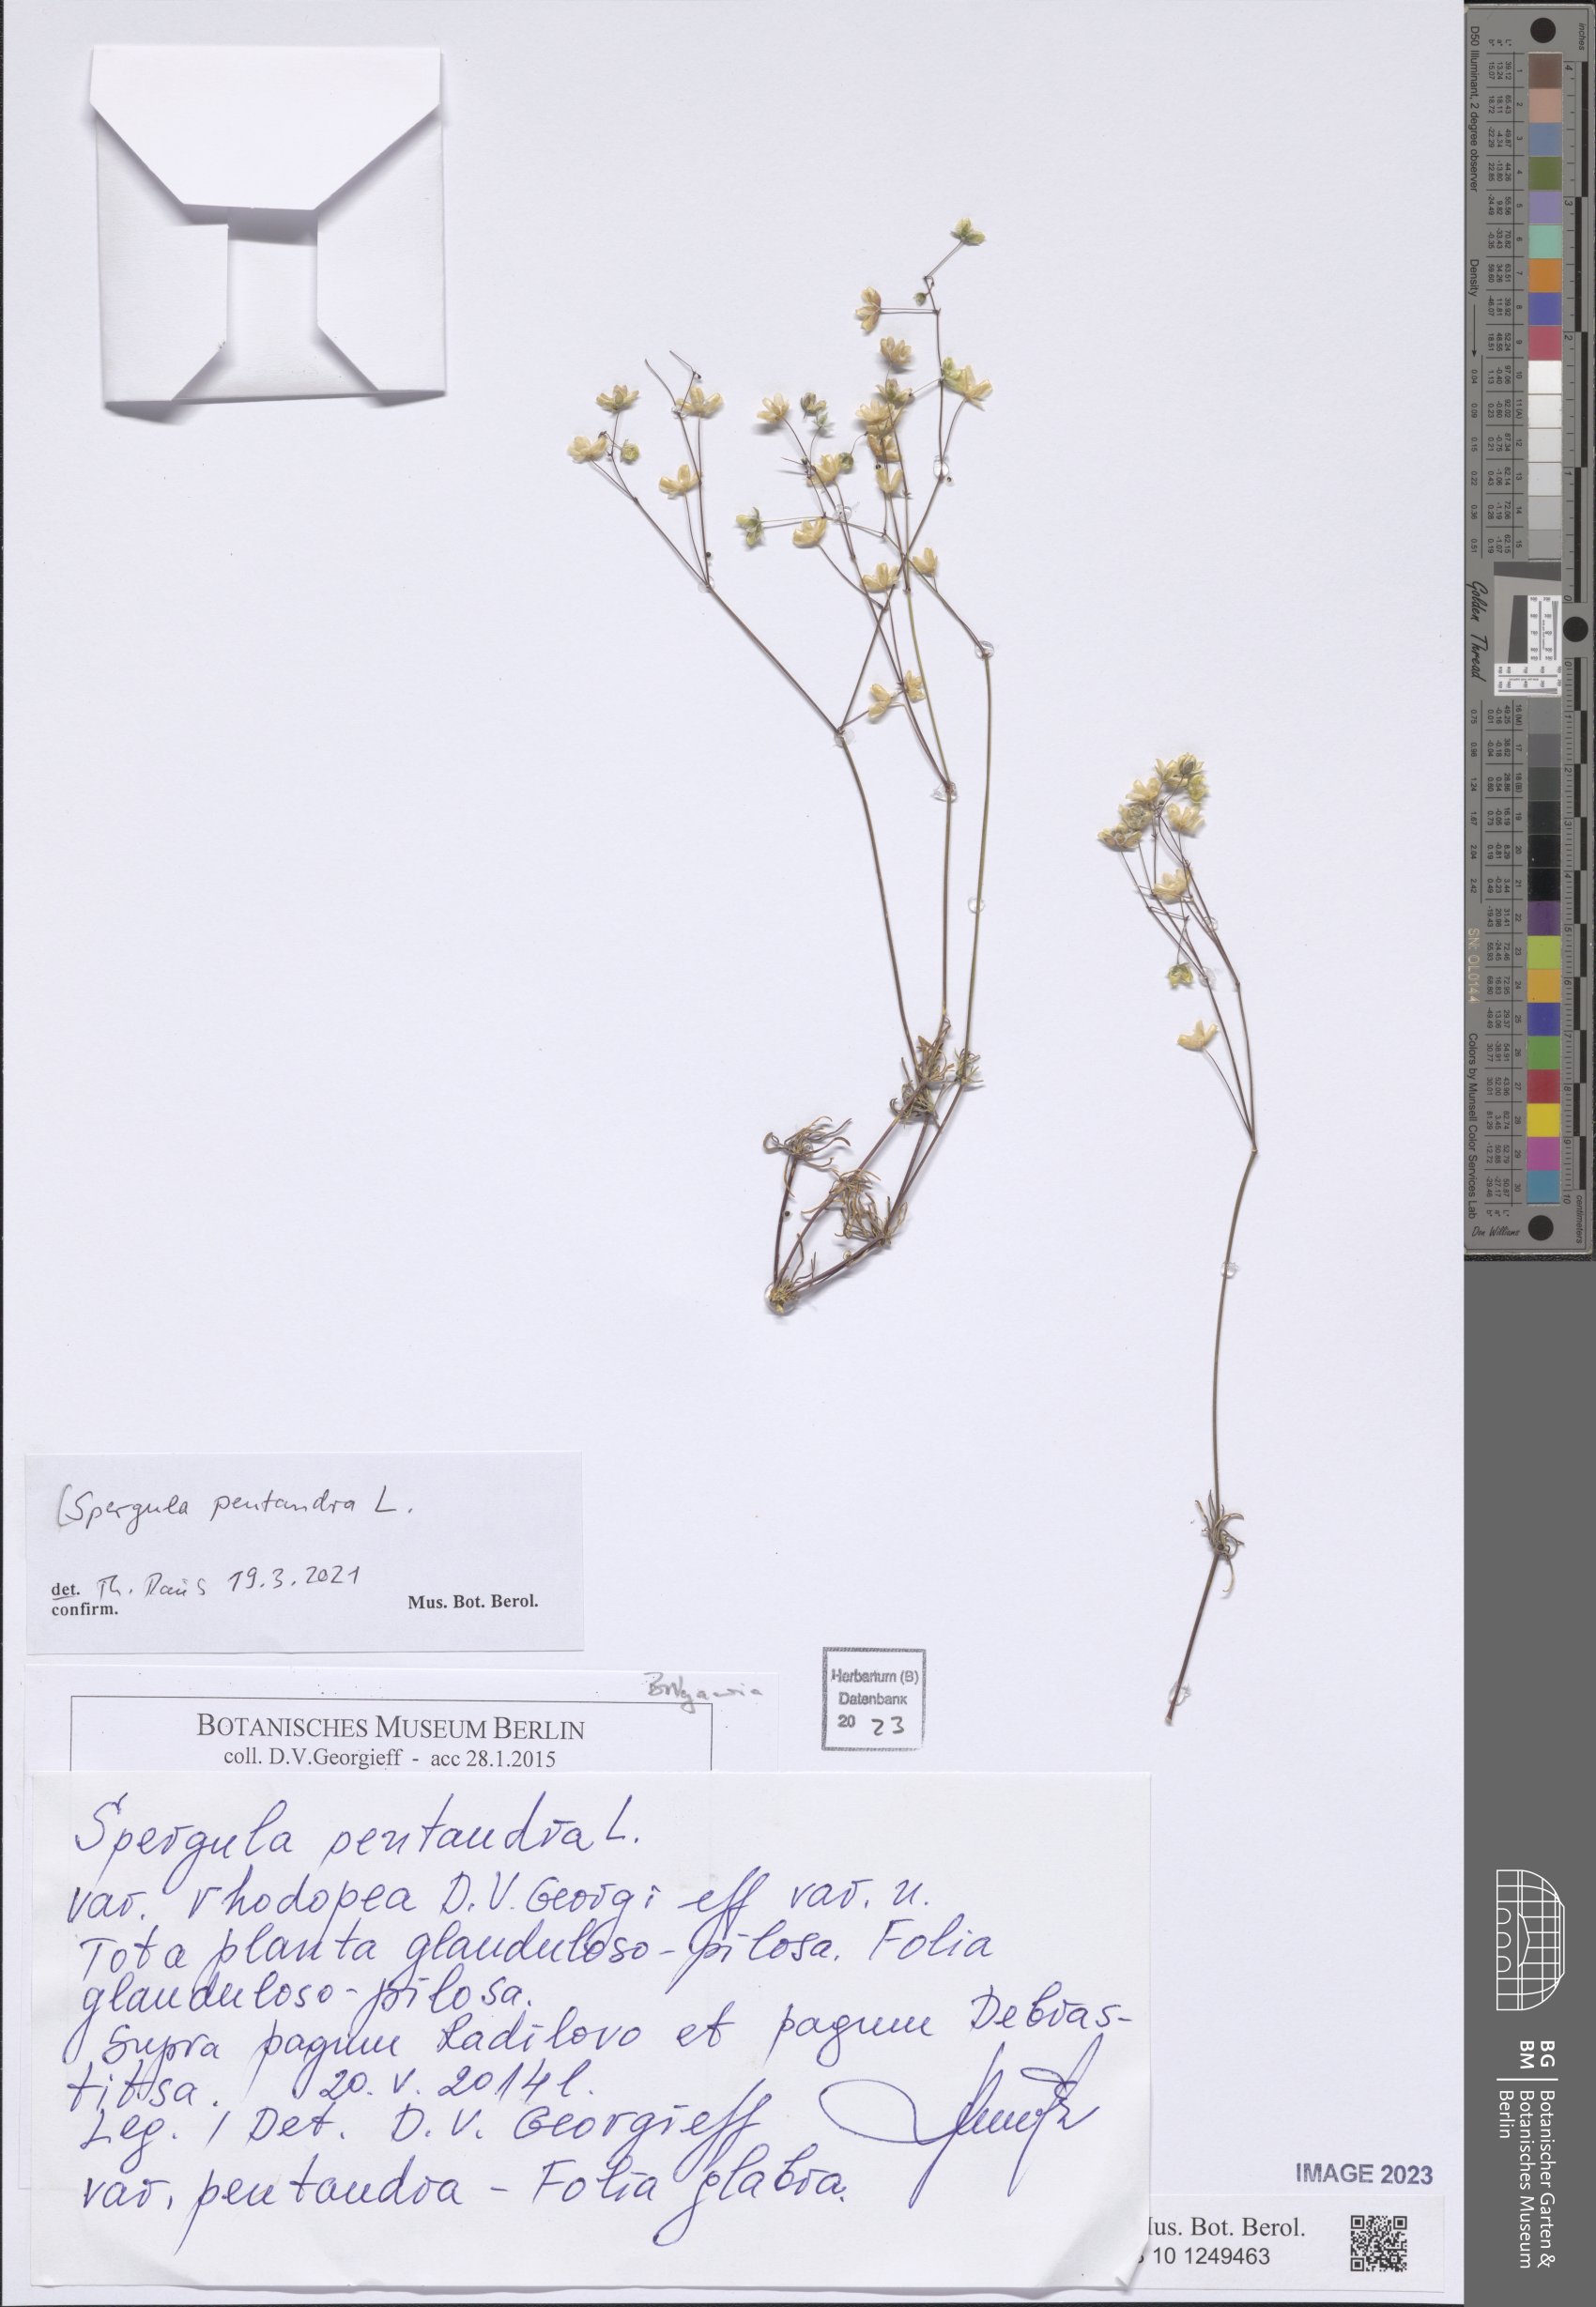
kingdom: Plantae
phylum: Tracheophyta
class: Magnoliopsida
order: Caryophyllales
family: Caryophyllaceae
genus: Spergula
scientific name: Spergula pentandra
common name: Wingstem spurry
